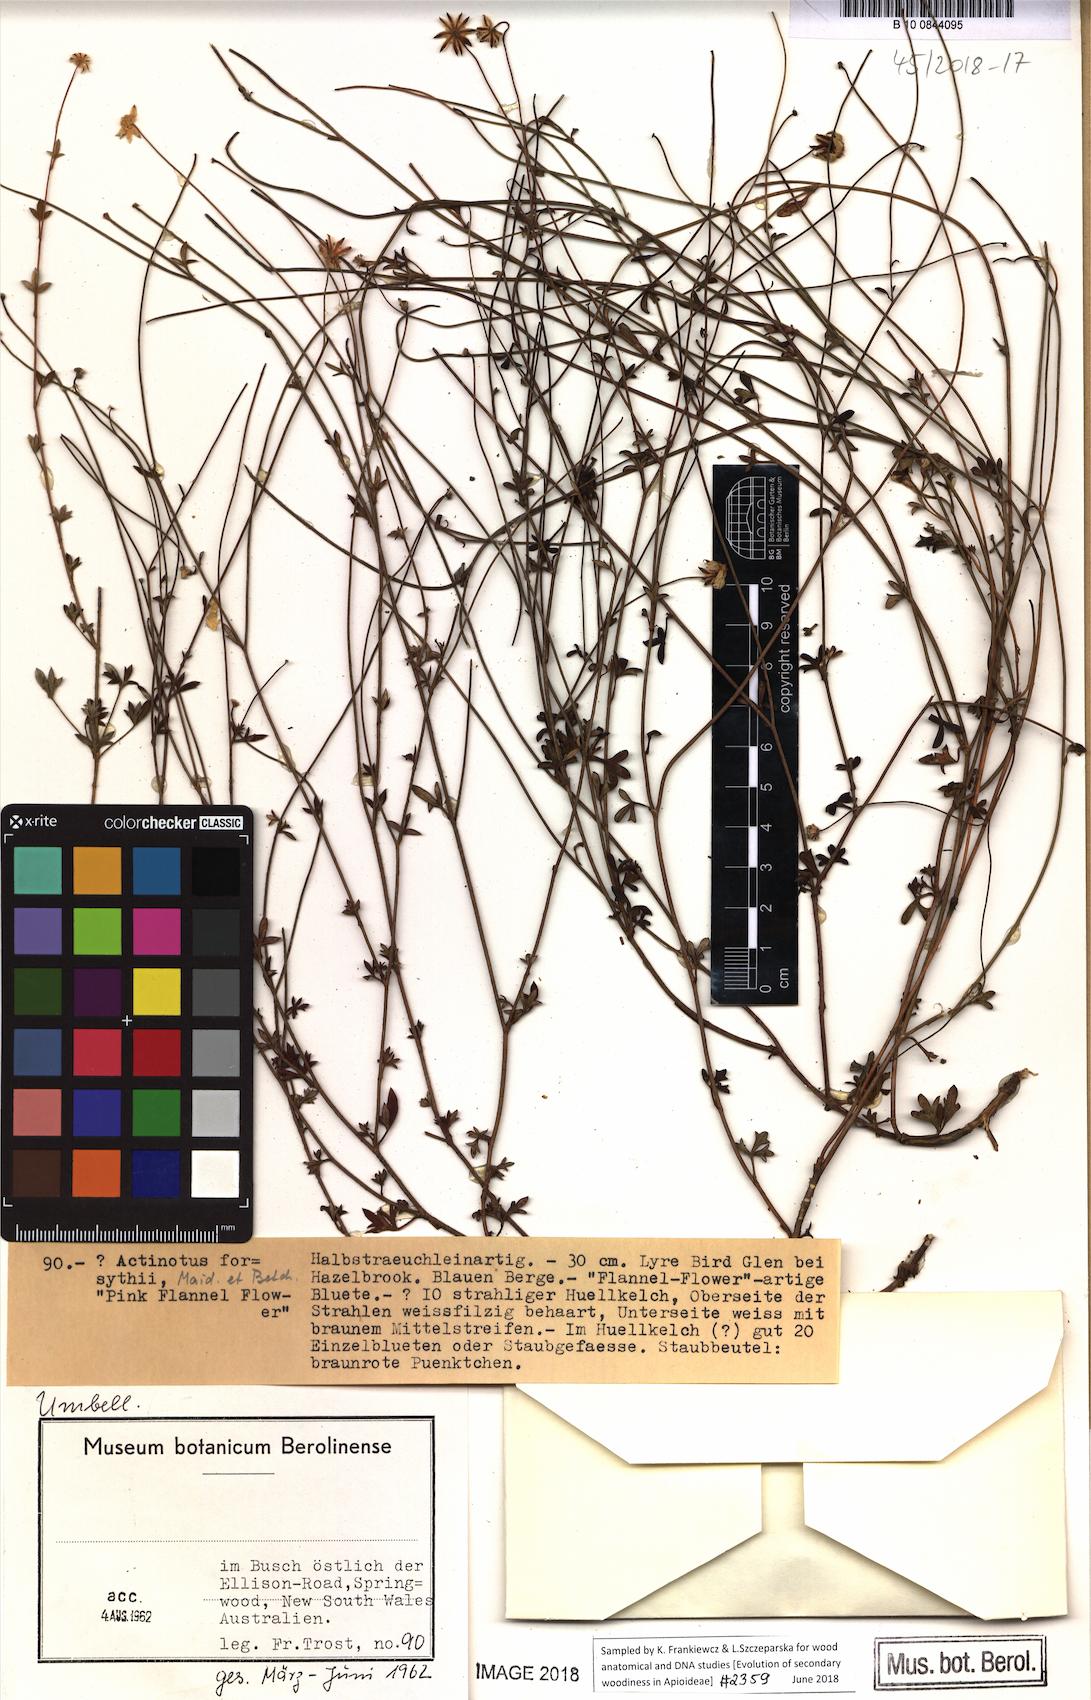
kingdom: Plantae
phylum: Tracheophyta
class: Magnoliopsida
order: Apiales
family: Apiaceae
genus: Actinotus
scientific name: Actinotus forsythii
